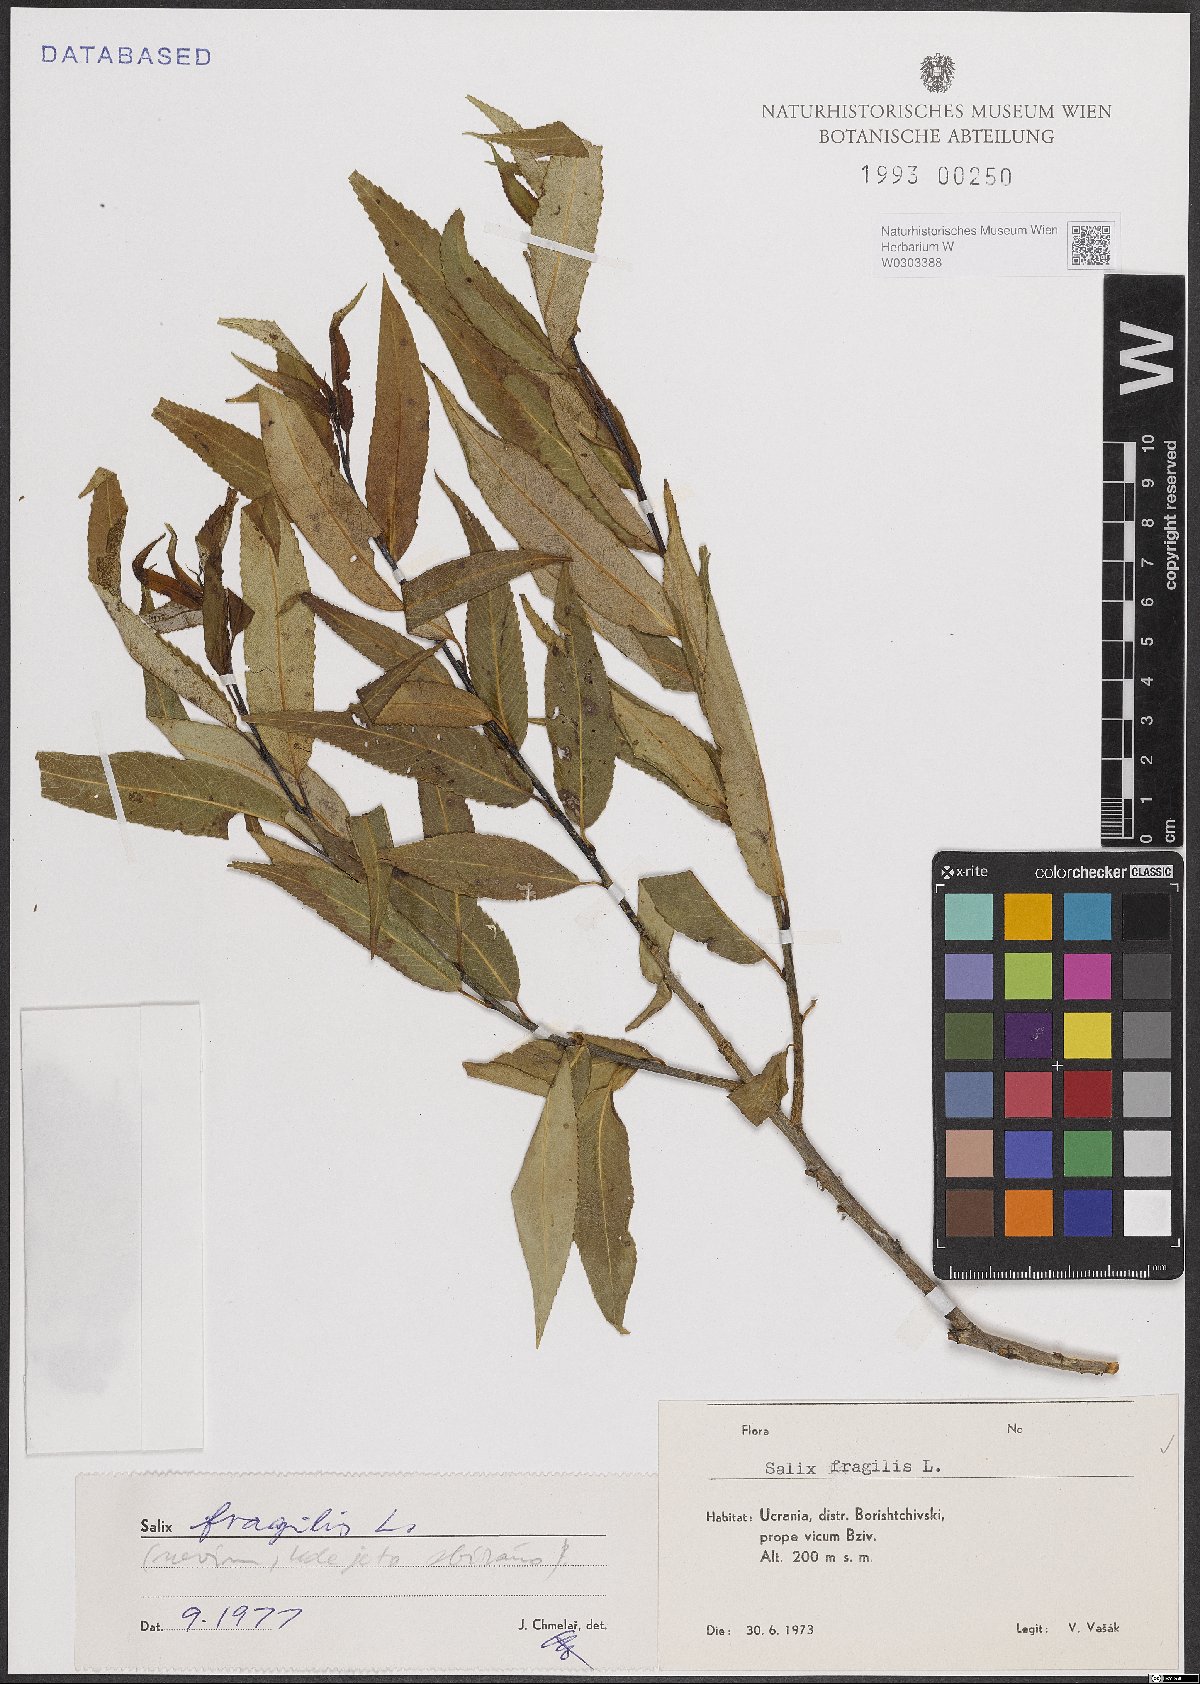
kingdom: Plantae
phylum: Tracheophyta
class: Magnoliopsida
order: Malpighiales
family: Salicaceae
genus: Salix
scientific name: Salix fragilis
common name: Crack willow
